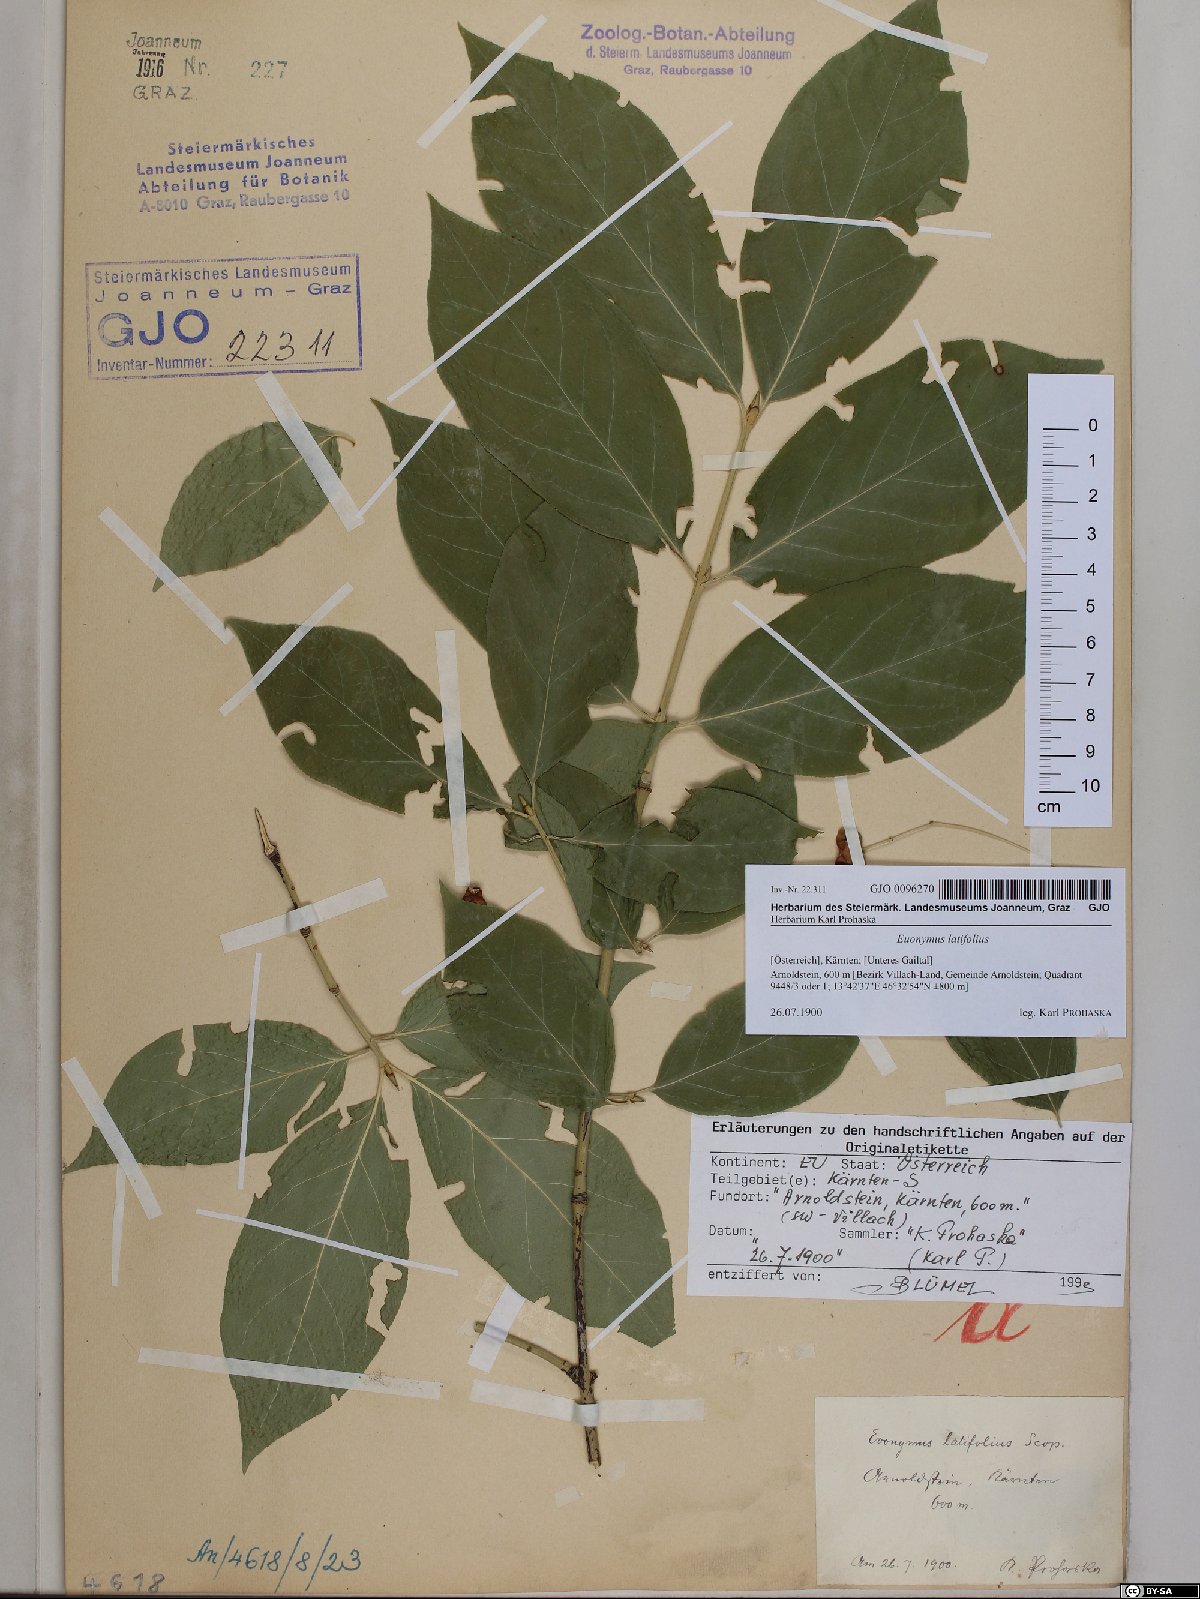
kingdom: Plantae
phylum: Tracheophyta
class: Magnoliopsida
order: Celastrales
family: Celastraceae
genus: Euonymus
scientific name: Euonymus latifolius
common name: Large-leaved spindle
